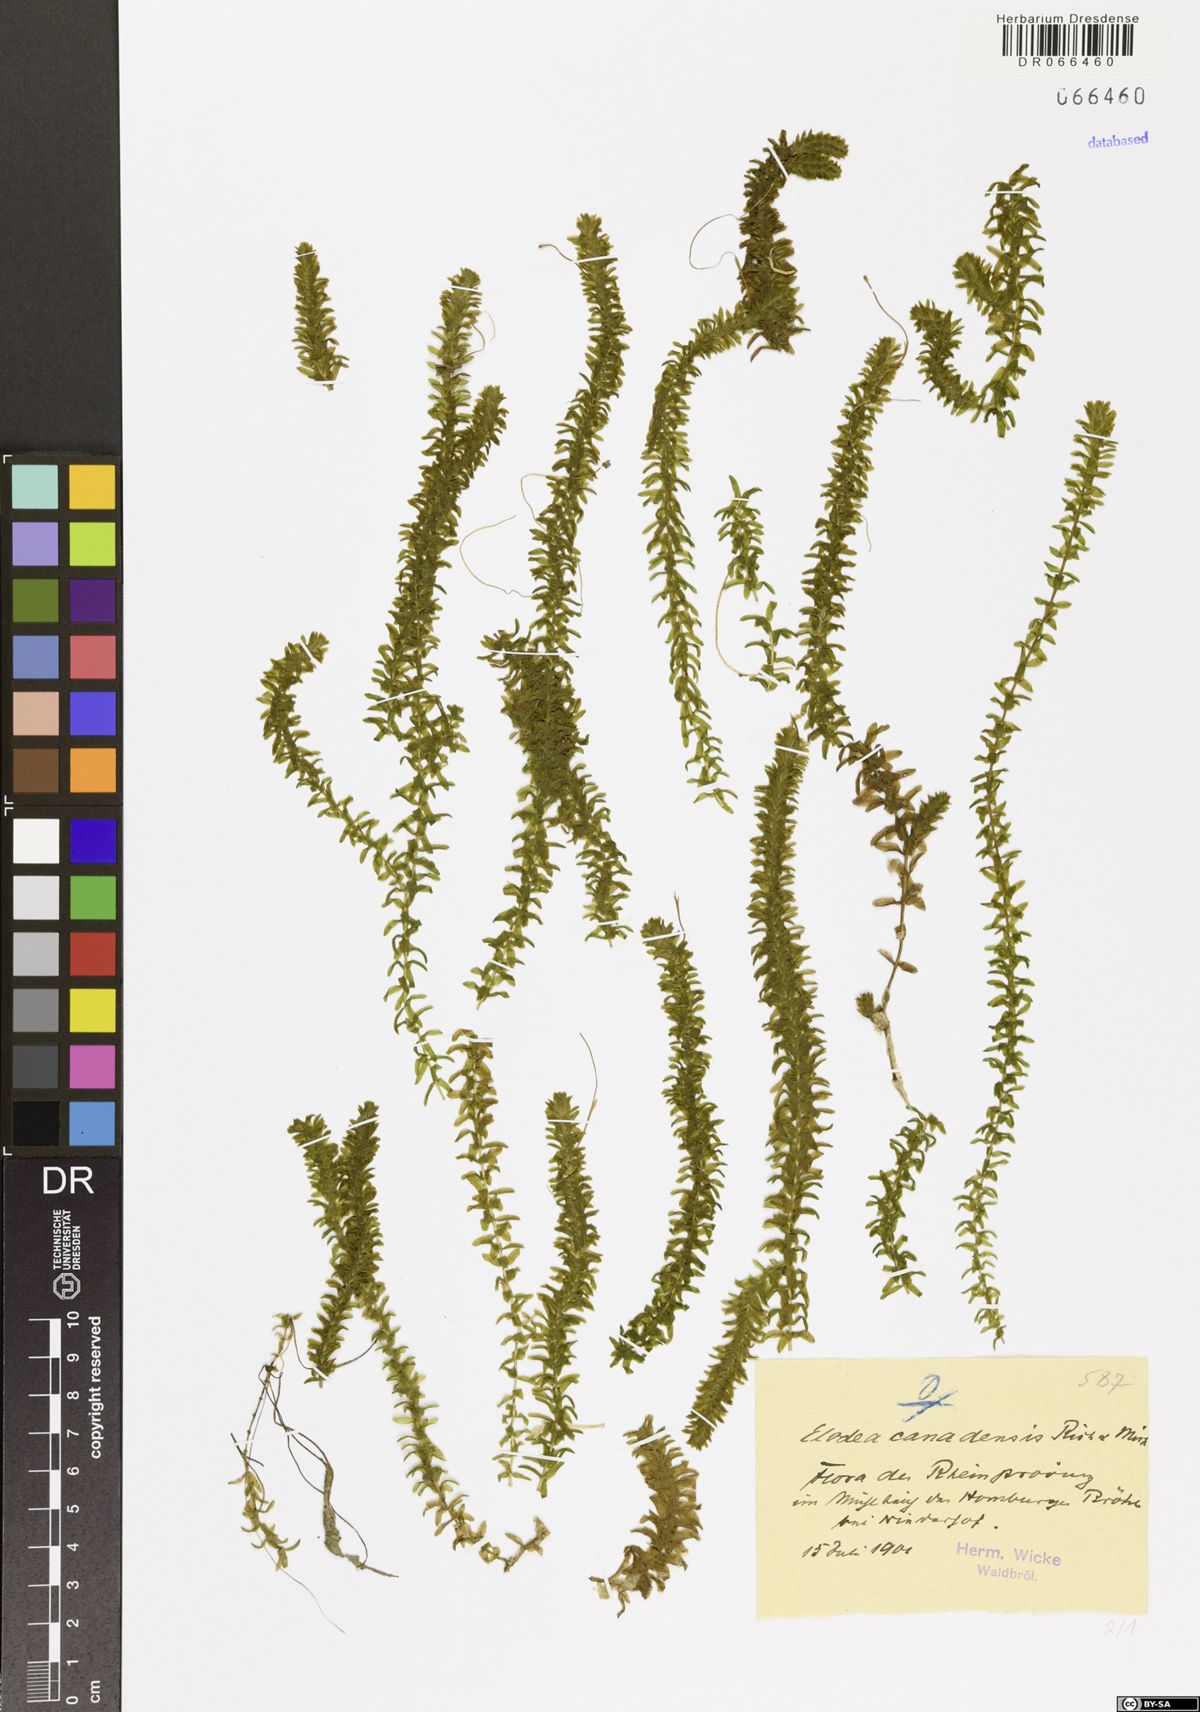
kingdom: Plantae
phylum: Tracheophyta
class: Liliopsida
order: Alismatales
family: Hydrocharitaceae
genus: Elodea
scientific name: Elodea canadensis
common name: Canadian waterweed
